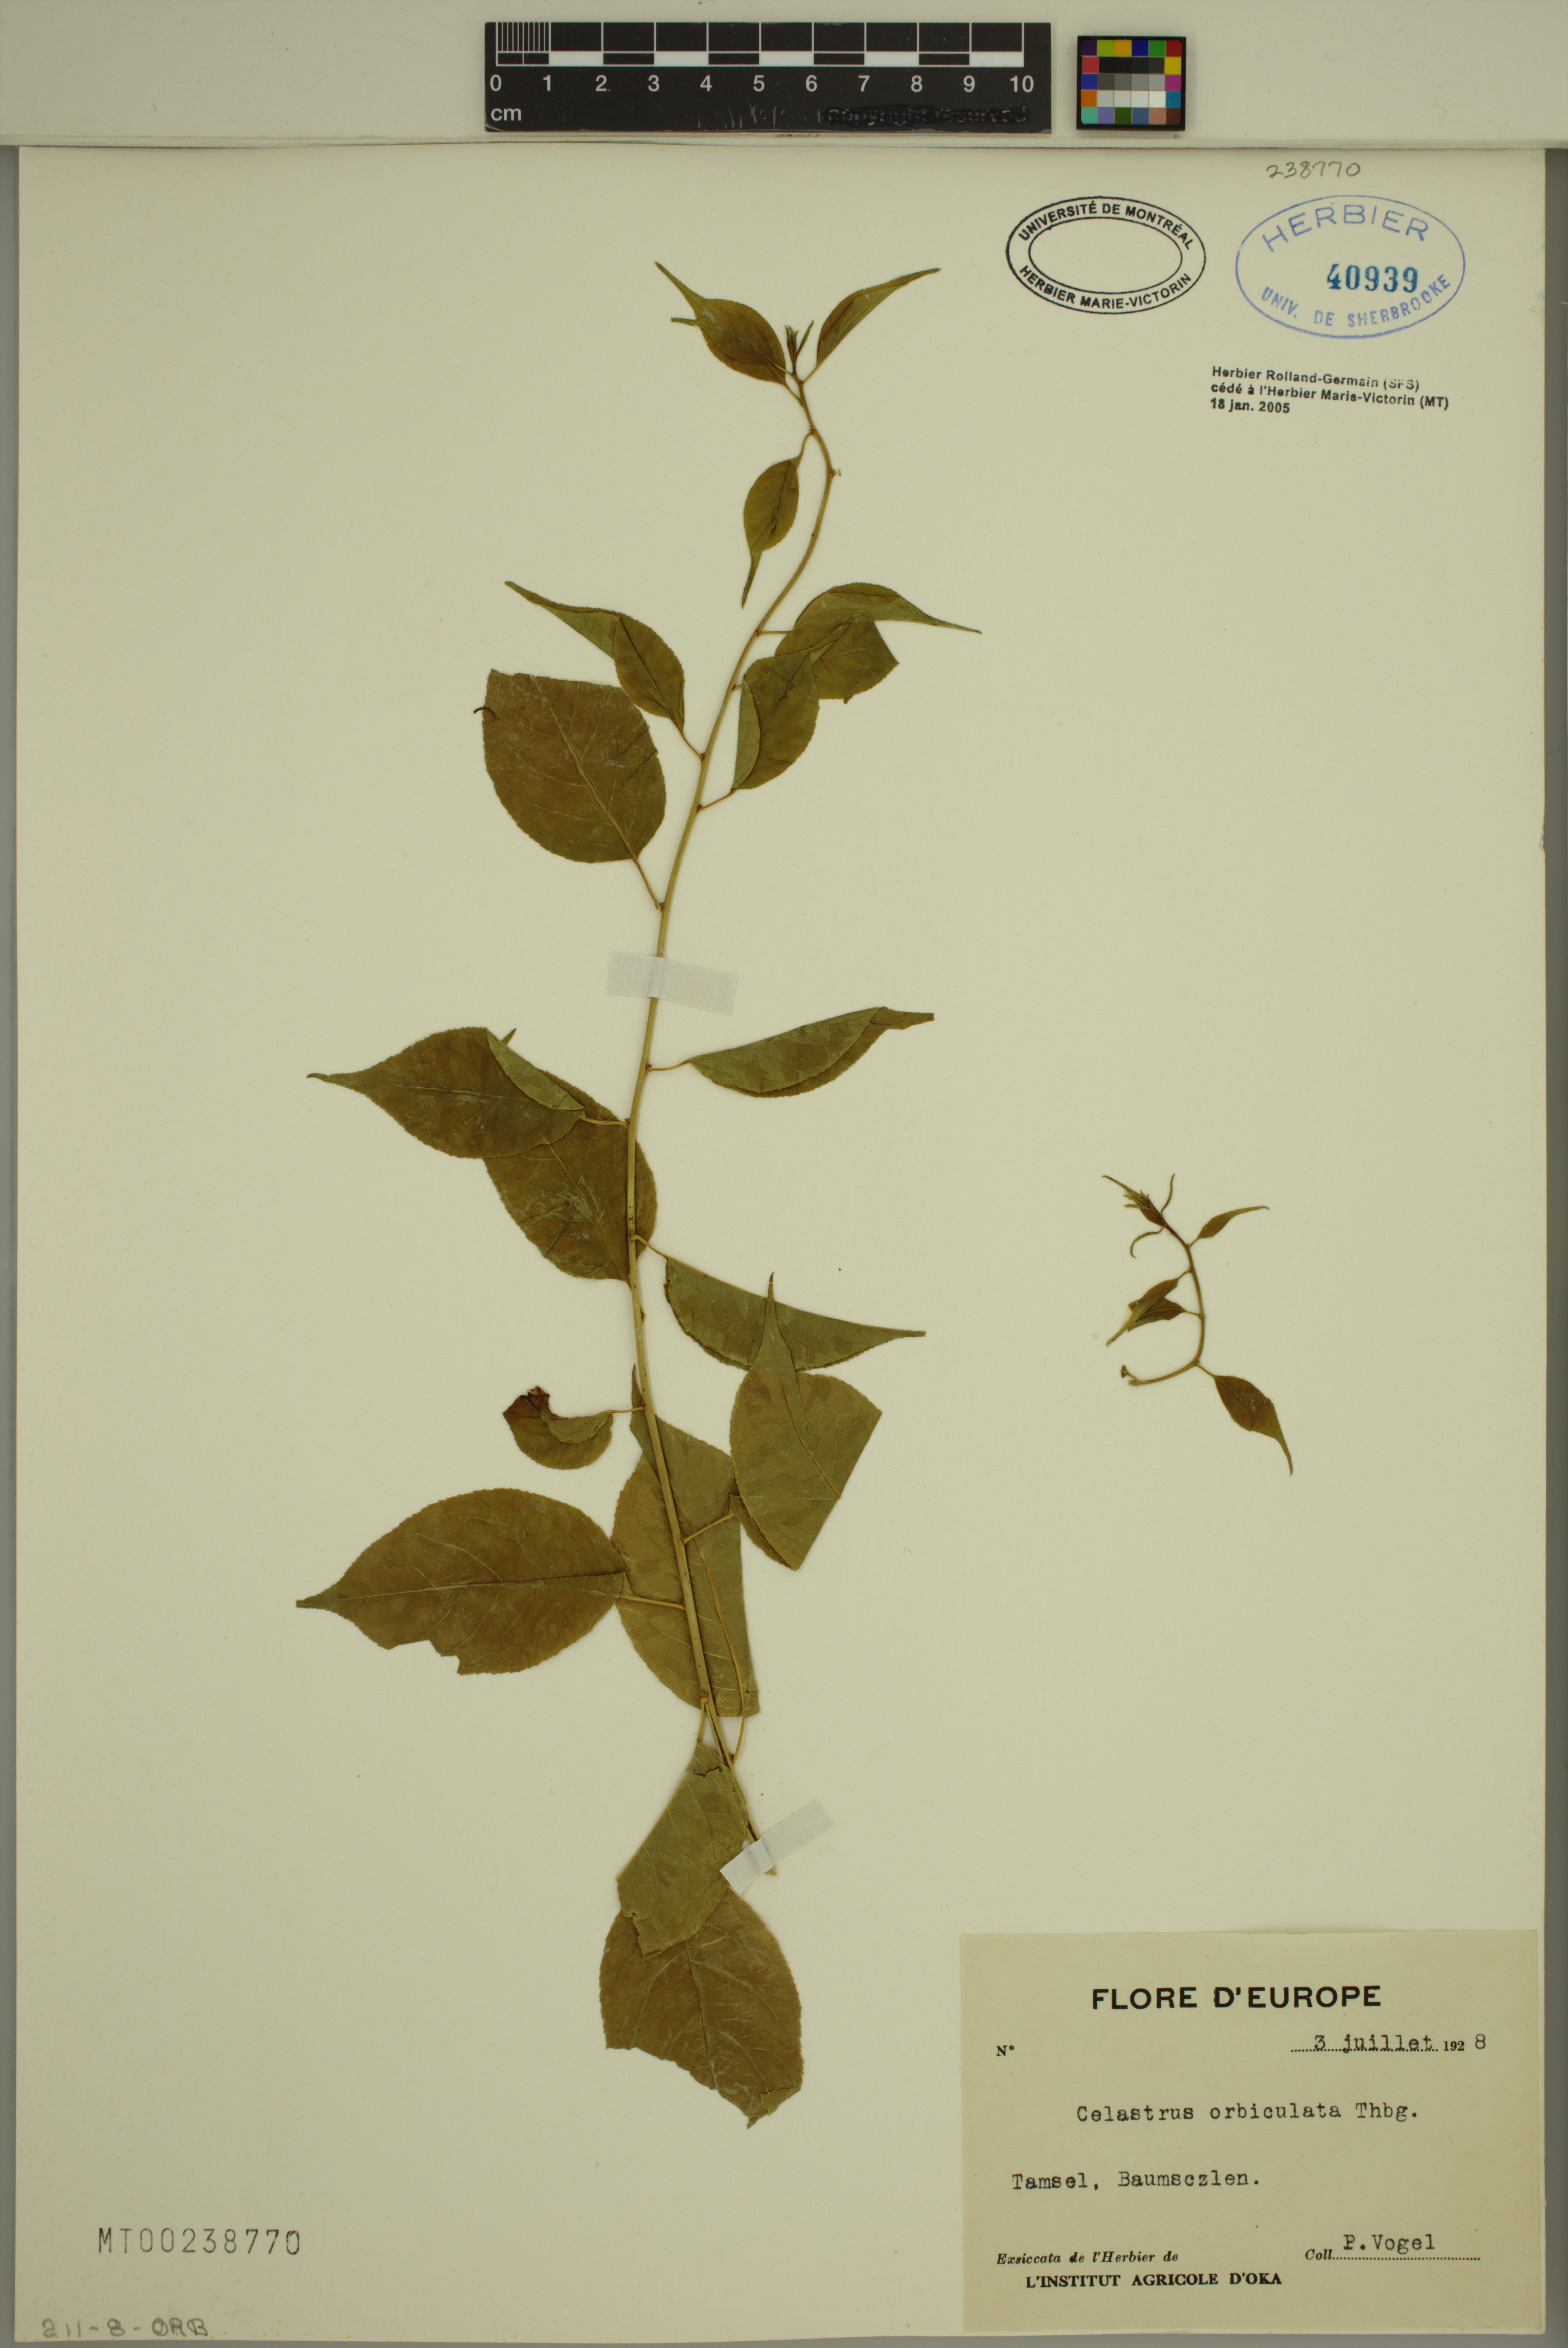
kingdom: Plantae
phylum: Tracheophyta
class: Magnoliopsida
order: Celastrales
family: Celastraceae
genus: Celastrus
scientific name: Celastrus orbiculatus
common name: Oriental bittersweet
